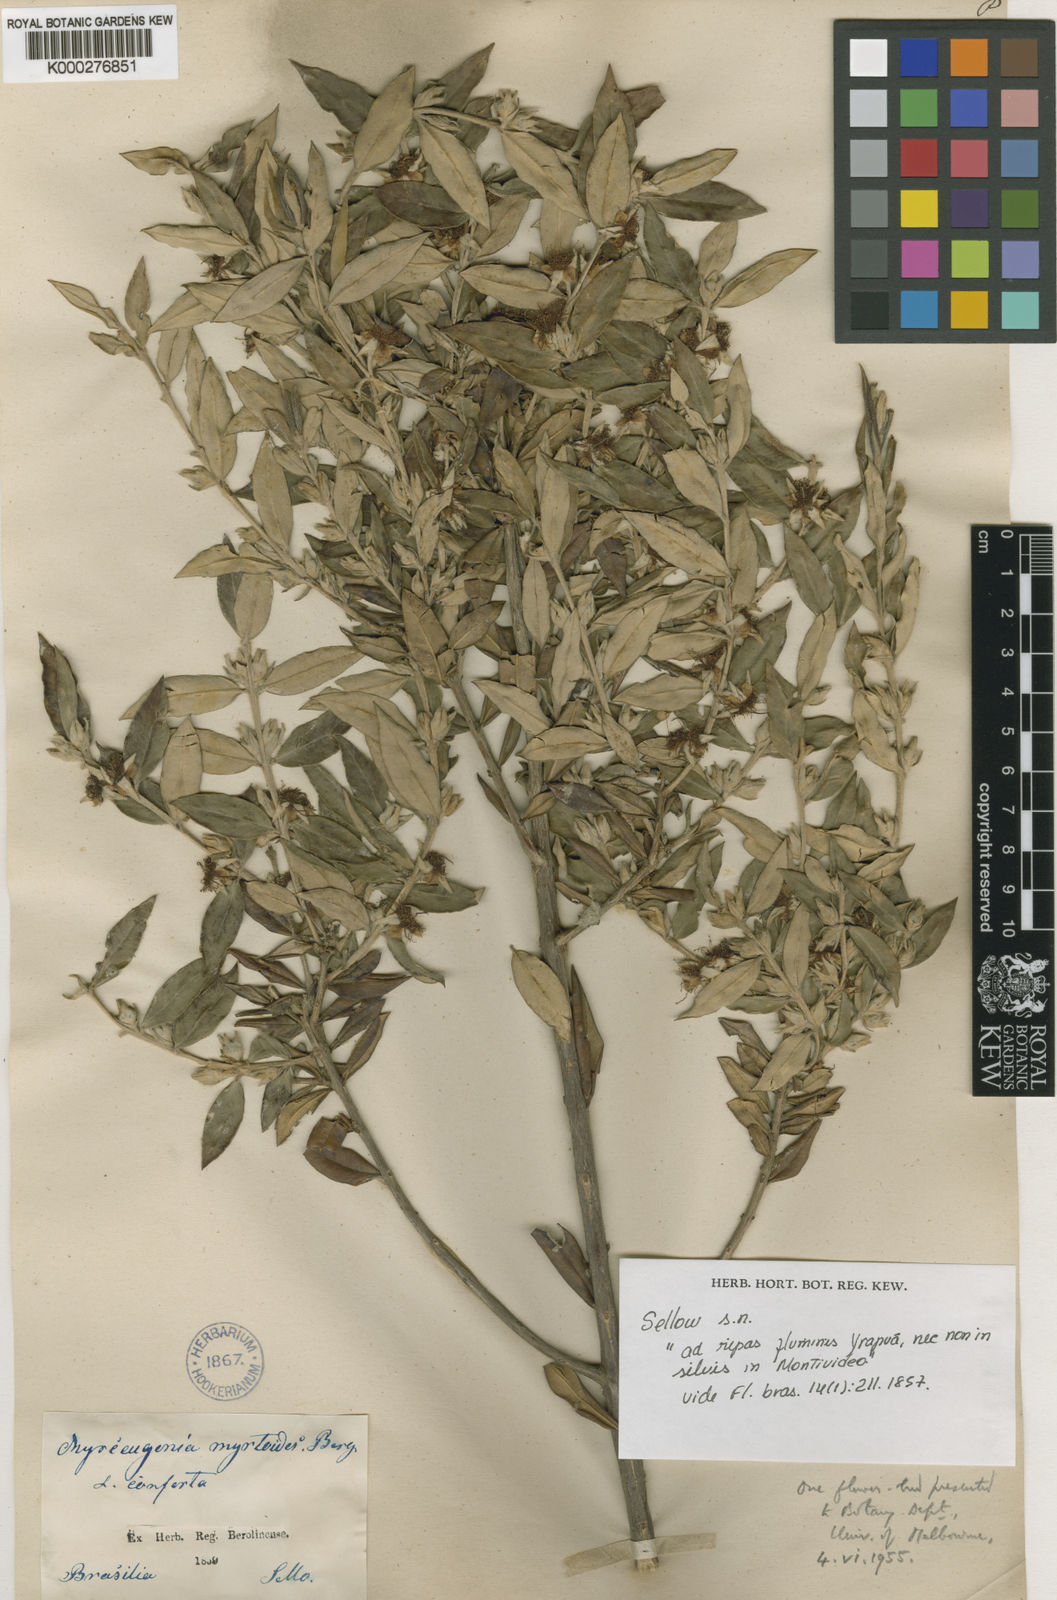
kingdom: Plantae
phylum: Tracheophyta
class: Magnoliopsida
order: Myrtales
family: Myrtaceae
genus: Myrceugenia
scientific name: Myrceugenia myrtoides
